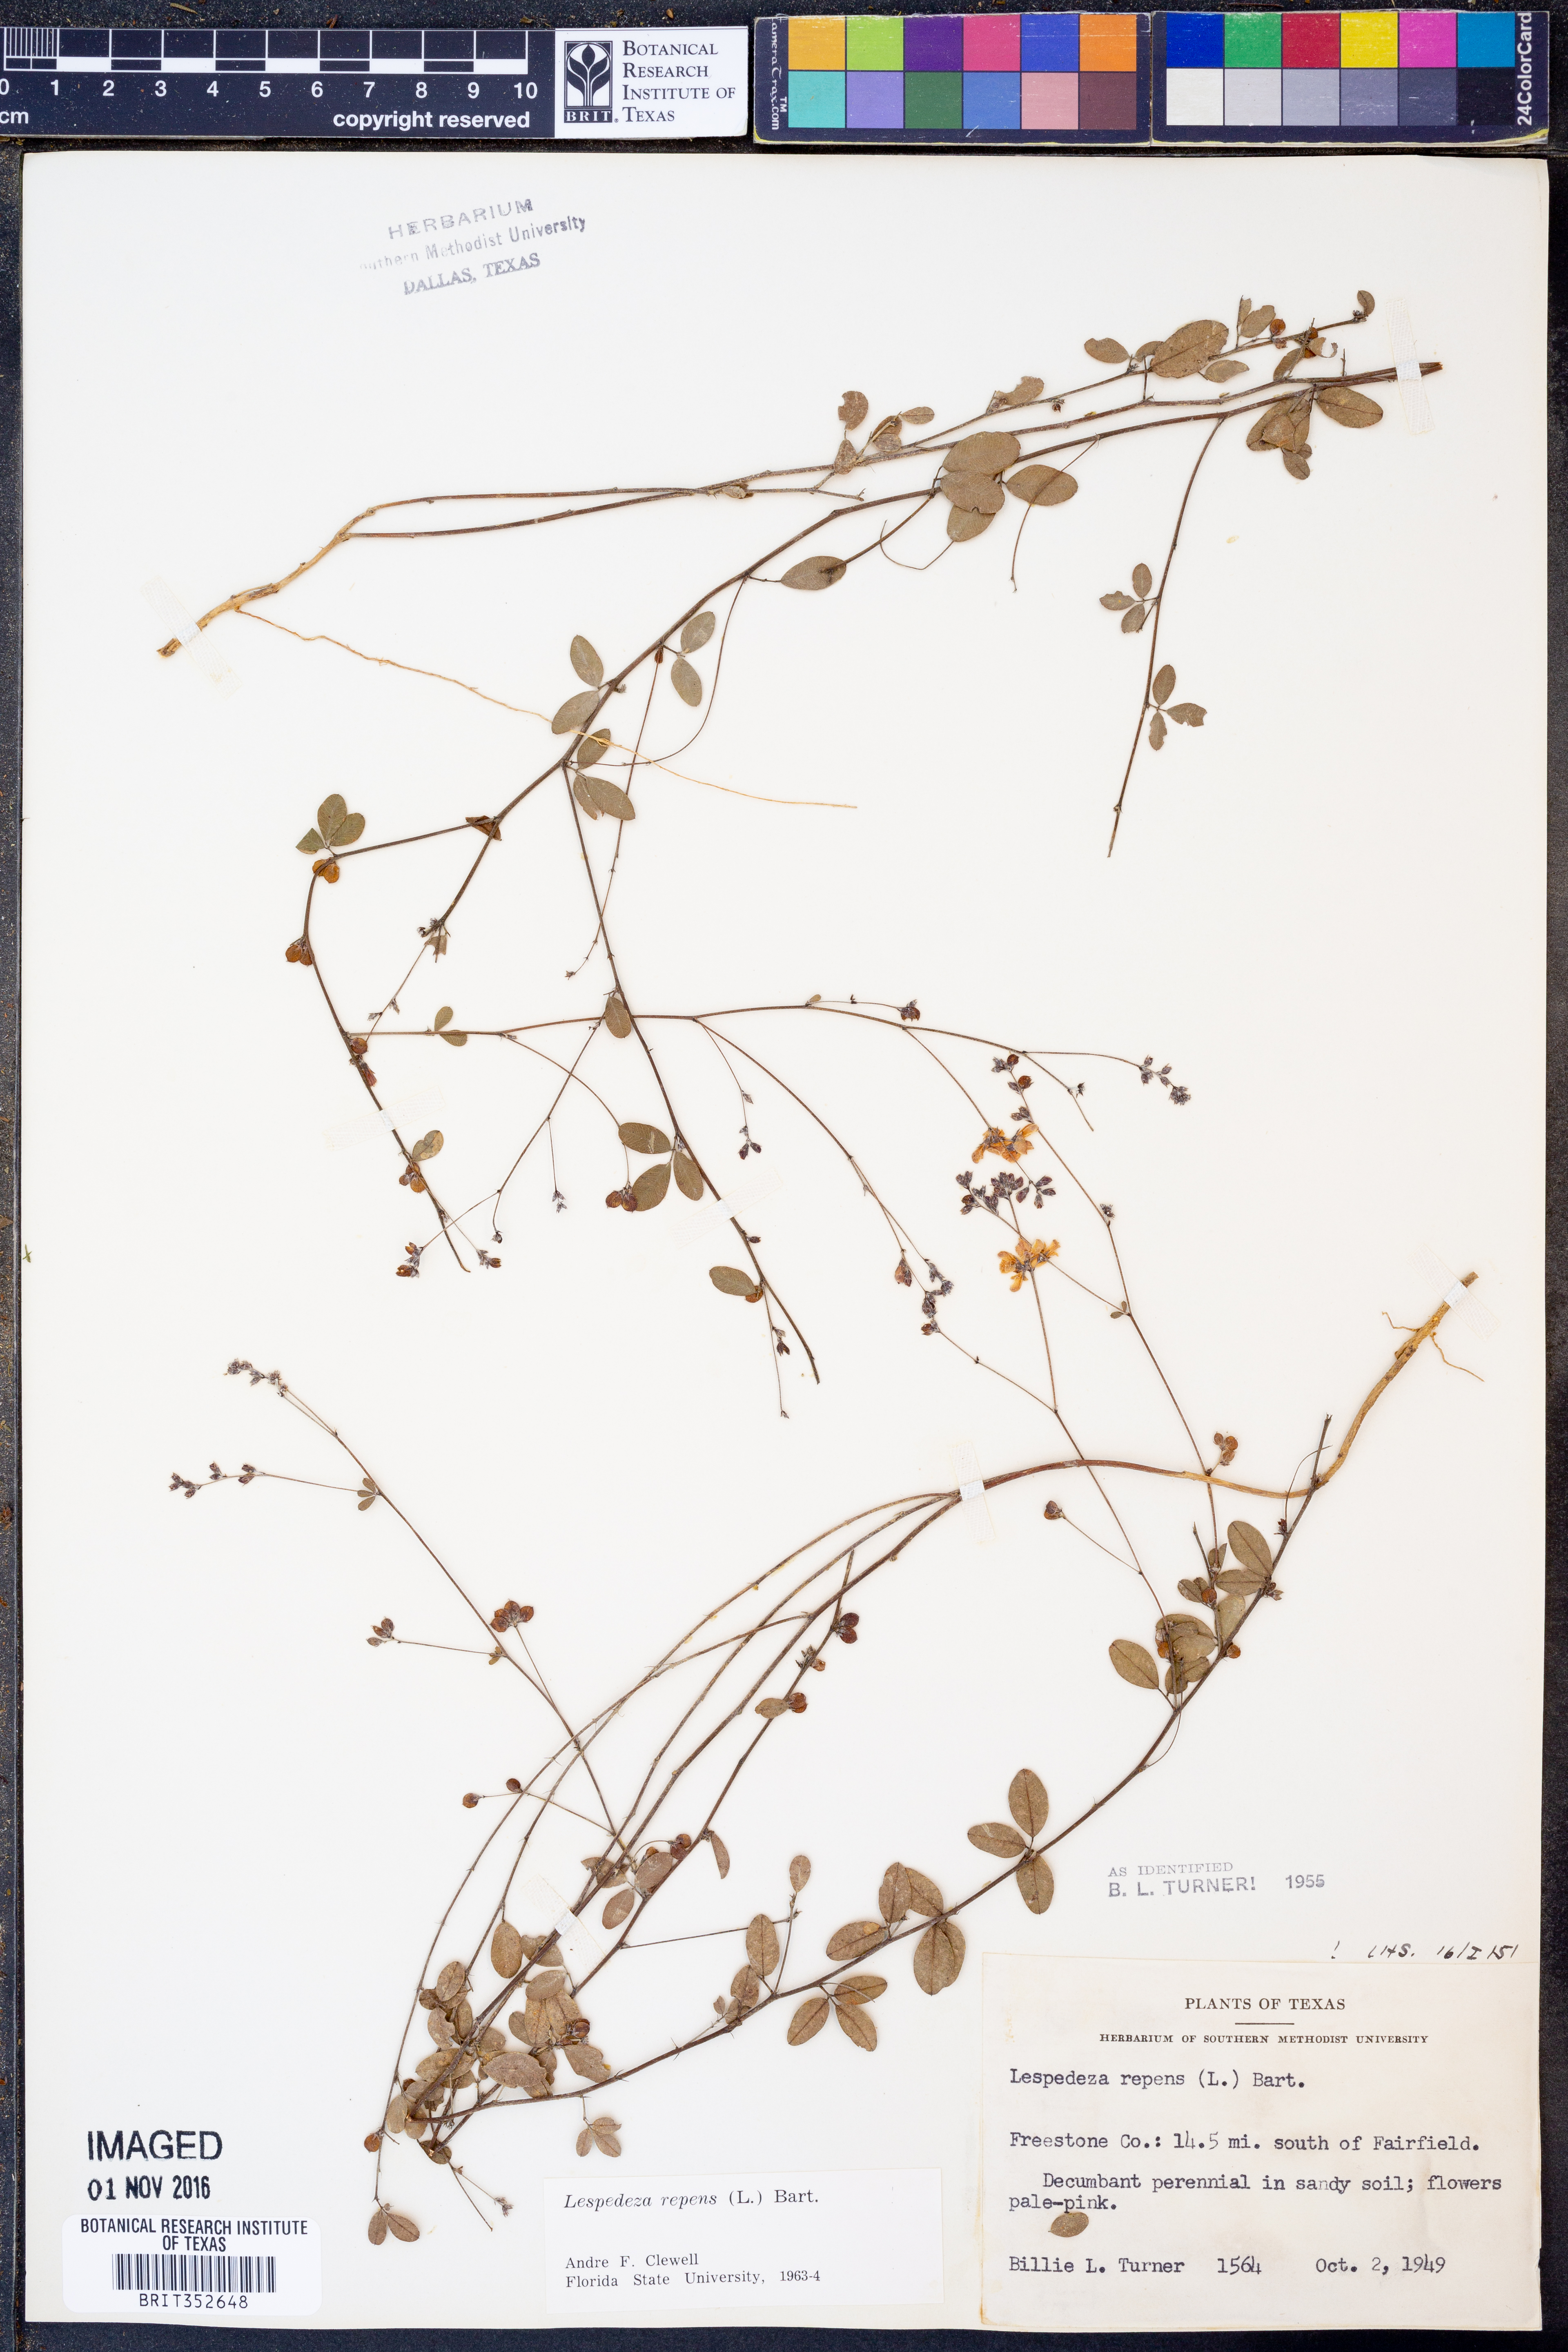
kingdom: Plantae
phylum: Tracheophyta
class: Magnoliopsida
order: Fabales
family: Fabaceae
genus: Lespedeza
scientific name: Lespedeza repens
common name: Creeping bush-clover
